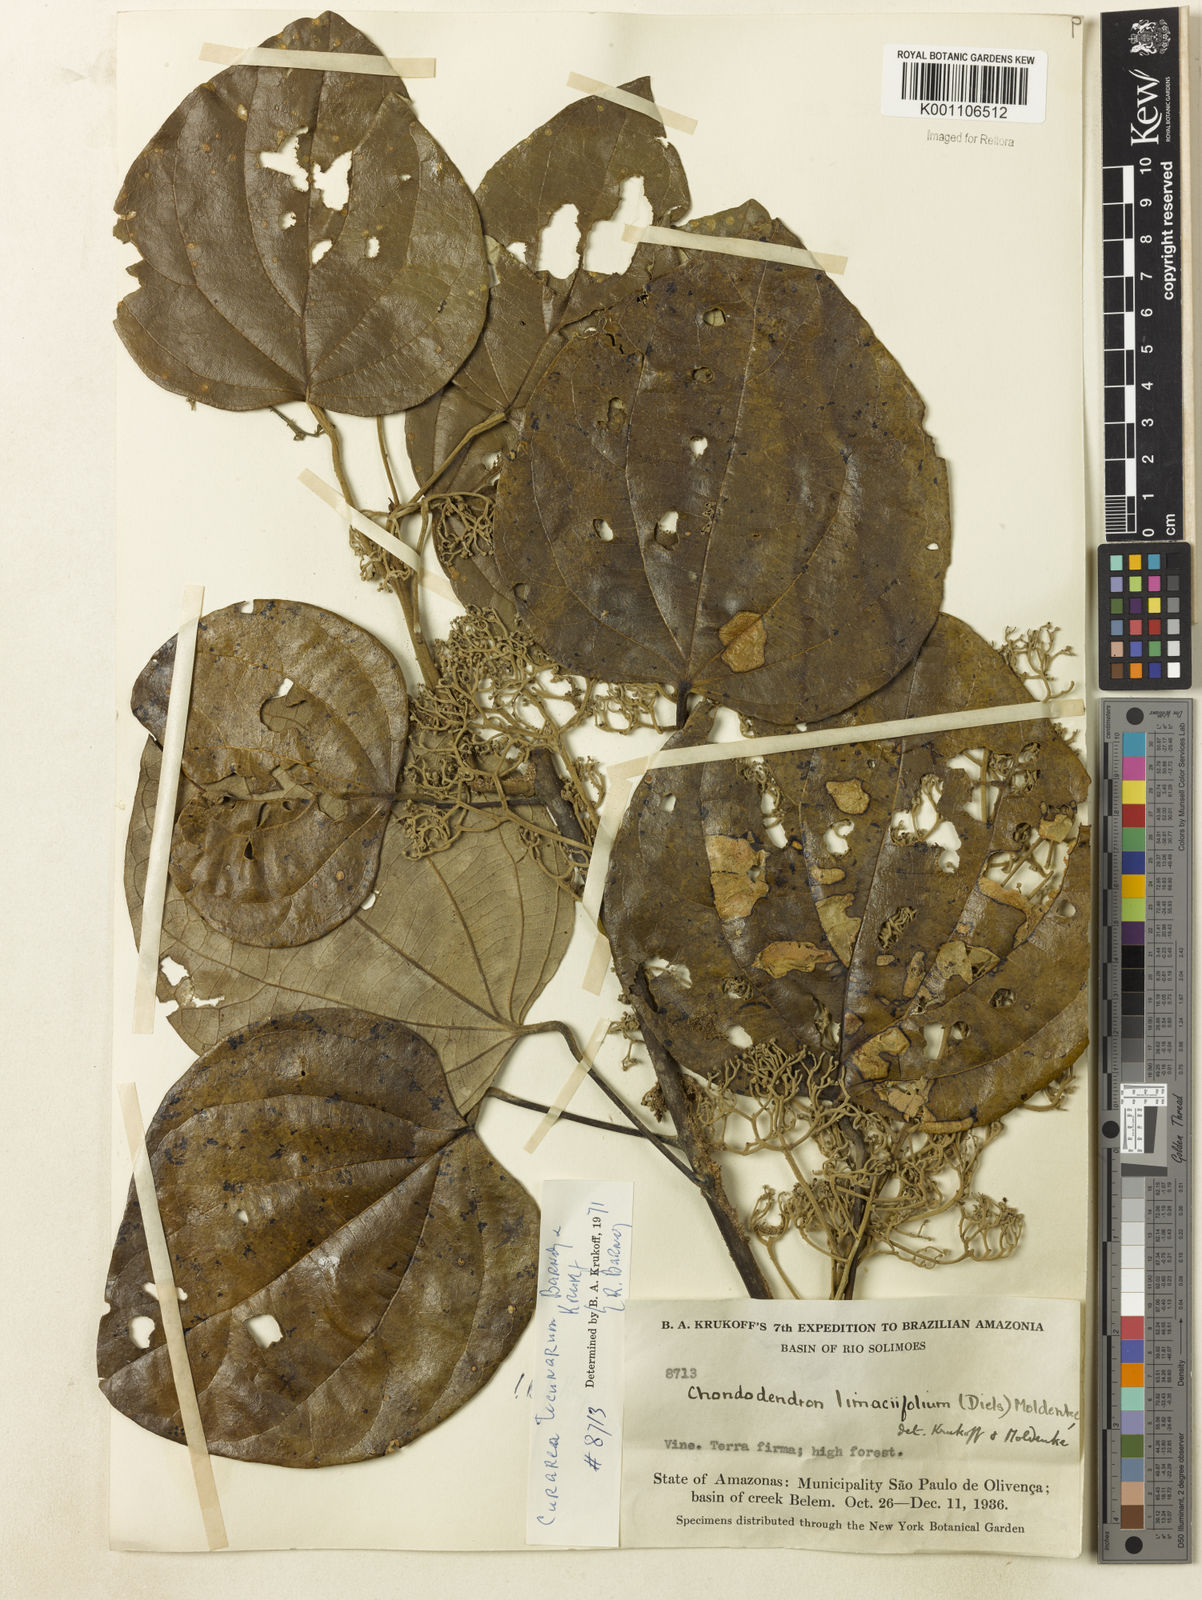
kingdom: Plantae
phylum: Tracheophyta
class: Magnoliopsida
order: Ranunculales
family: Menispermaceae
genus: Curarea
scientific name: Curarea tecunarum
